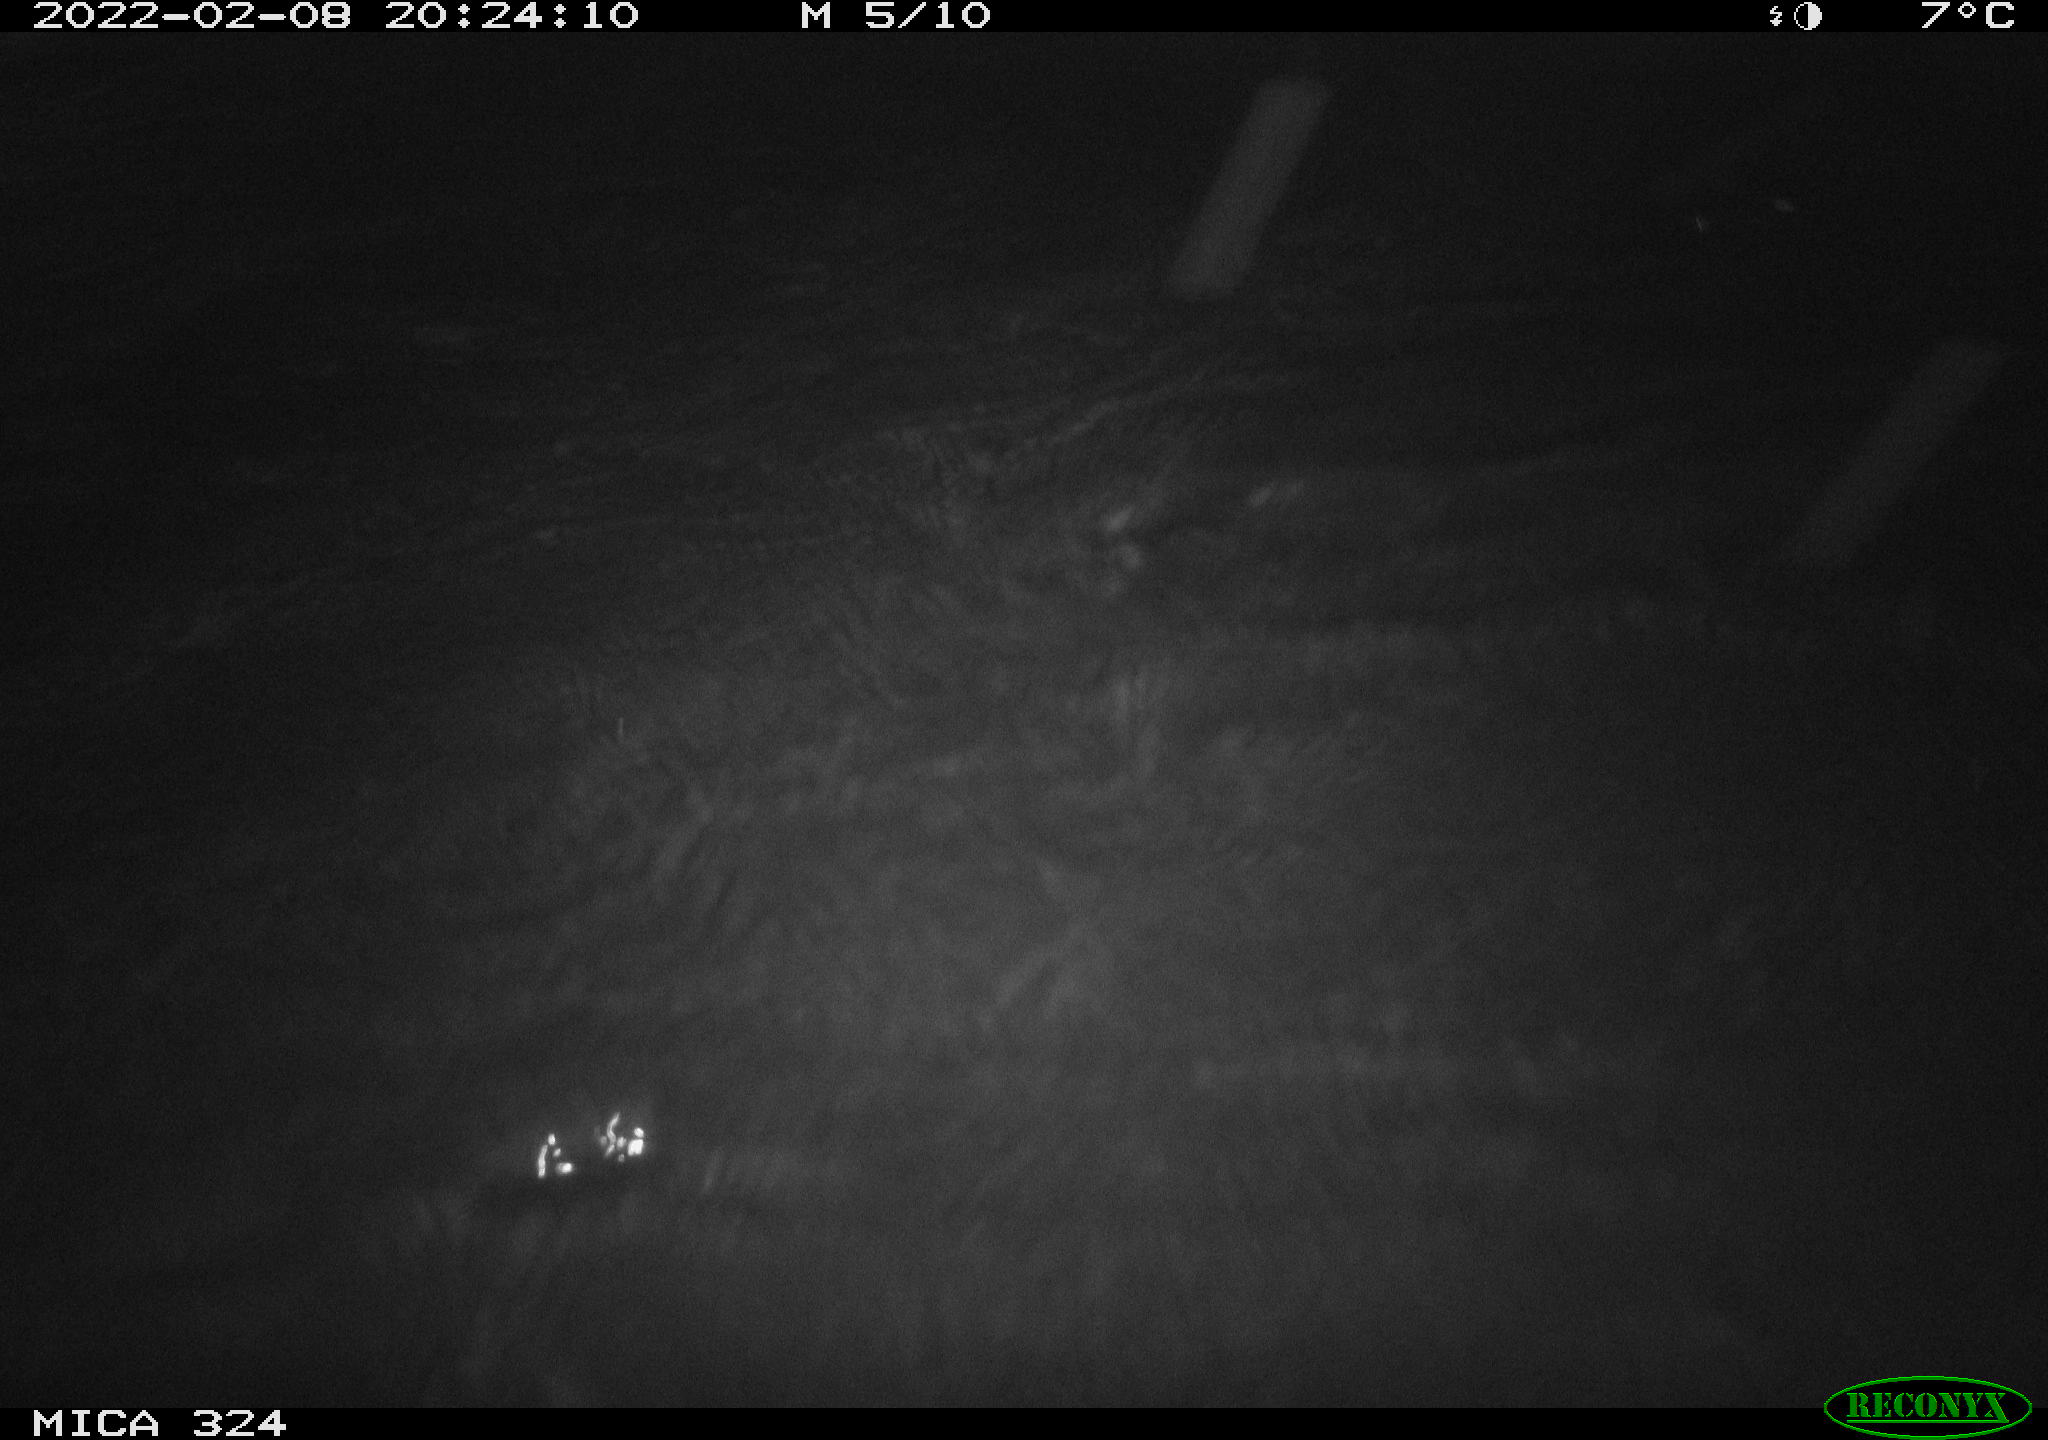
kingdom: Animalia
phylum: Chordata
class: Mammalia
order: Rodentia
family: Cricetidae
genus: Ondatra
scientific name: Ondatra zibethicus
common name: Muskrat
